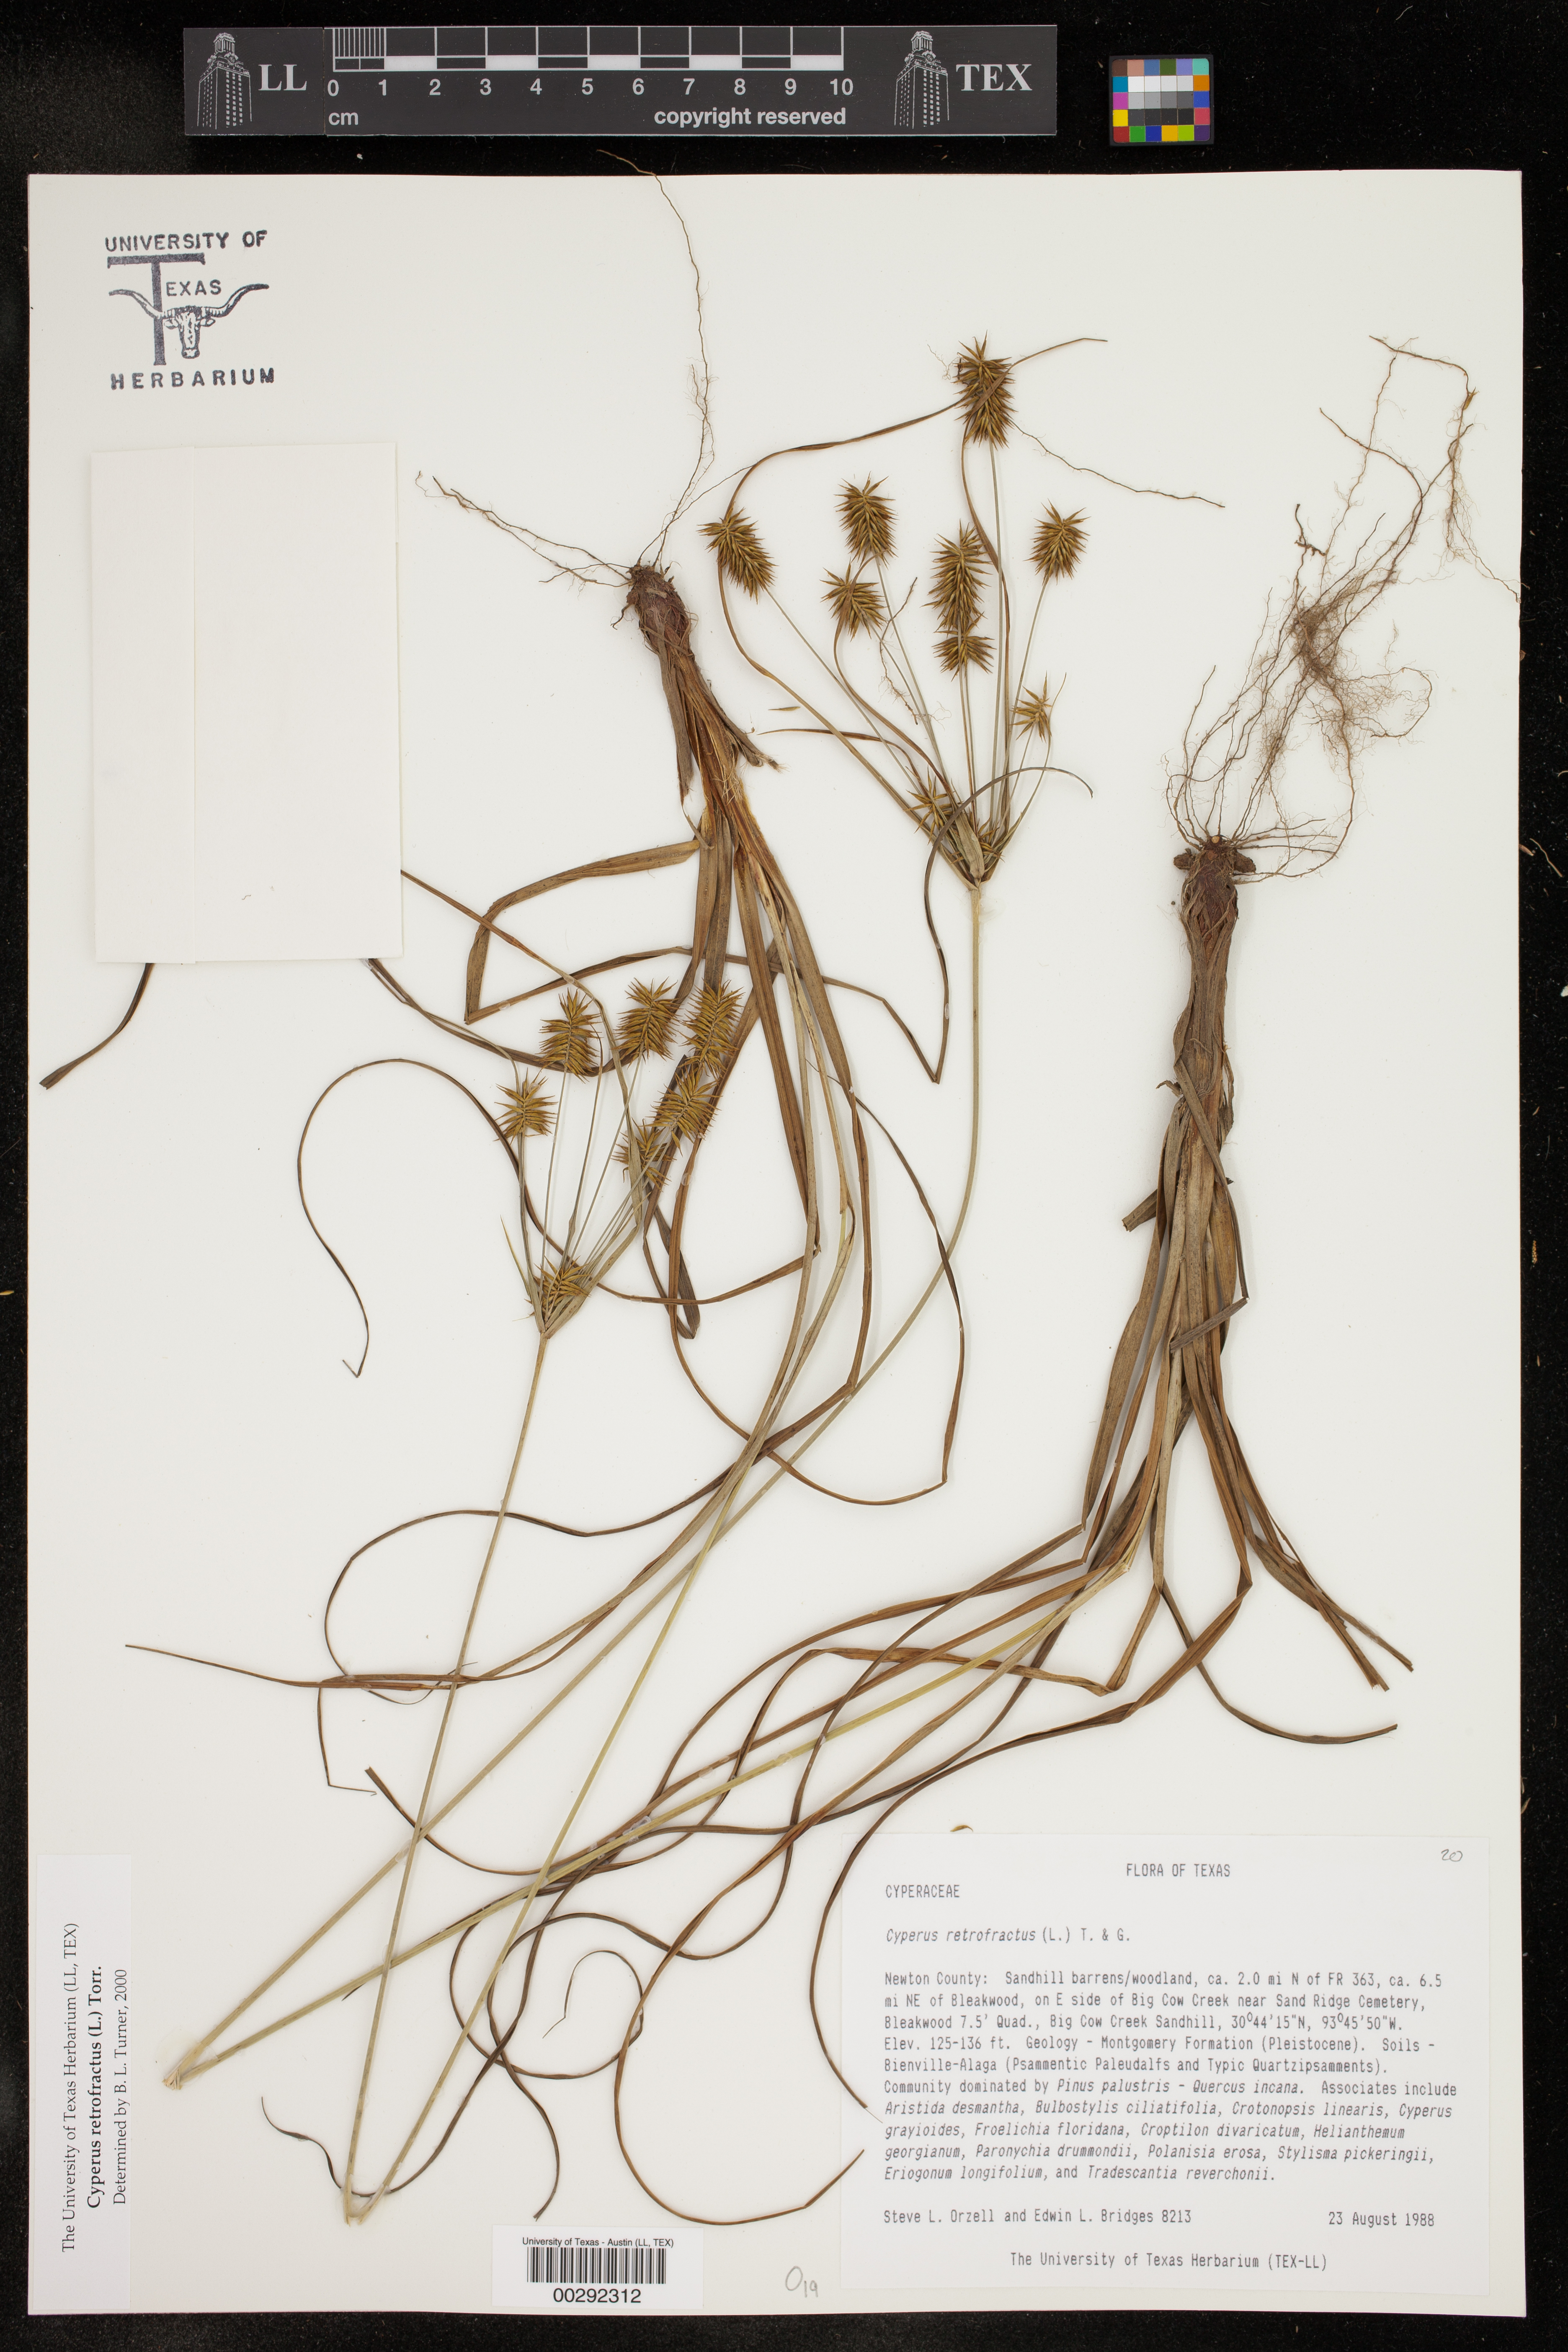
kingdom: Plantae
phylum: Tracheophyta
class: Liliopsida
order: Poales
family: Cyperaceae
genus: Cyperus
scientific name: Cyperus retrofractus
